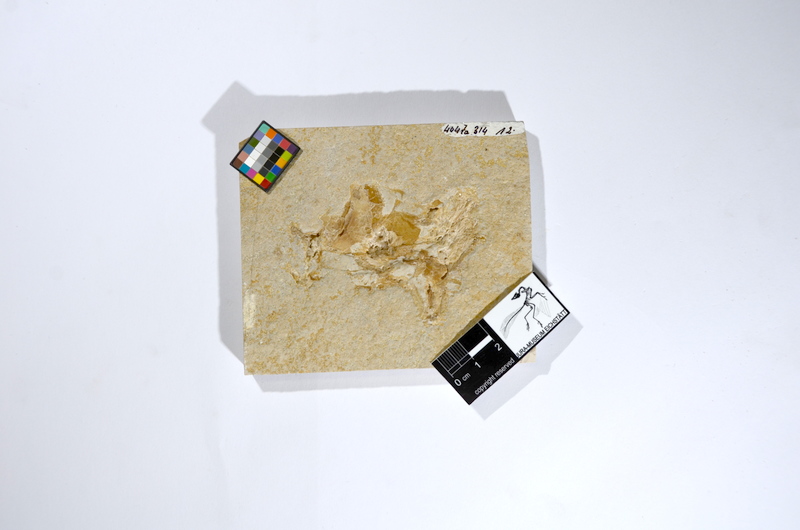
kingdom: Animalia
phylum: Chordata
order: Amiiformes
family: Caturidae
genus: Caturus
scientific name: Caturus
